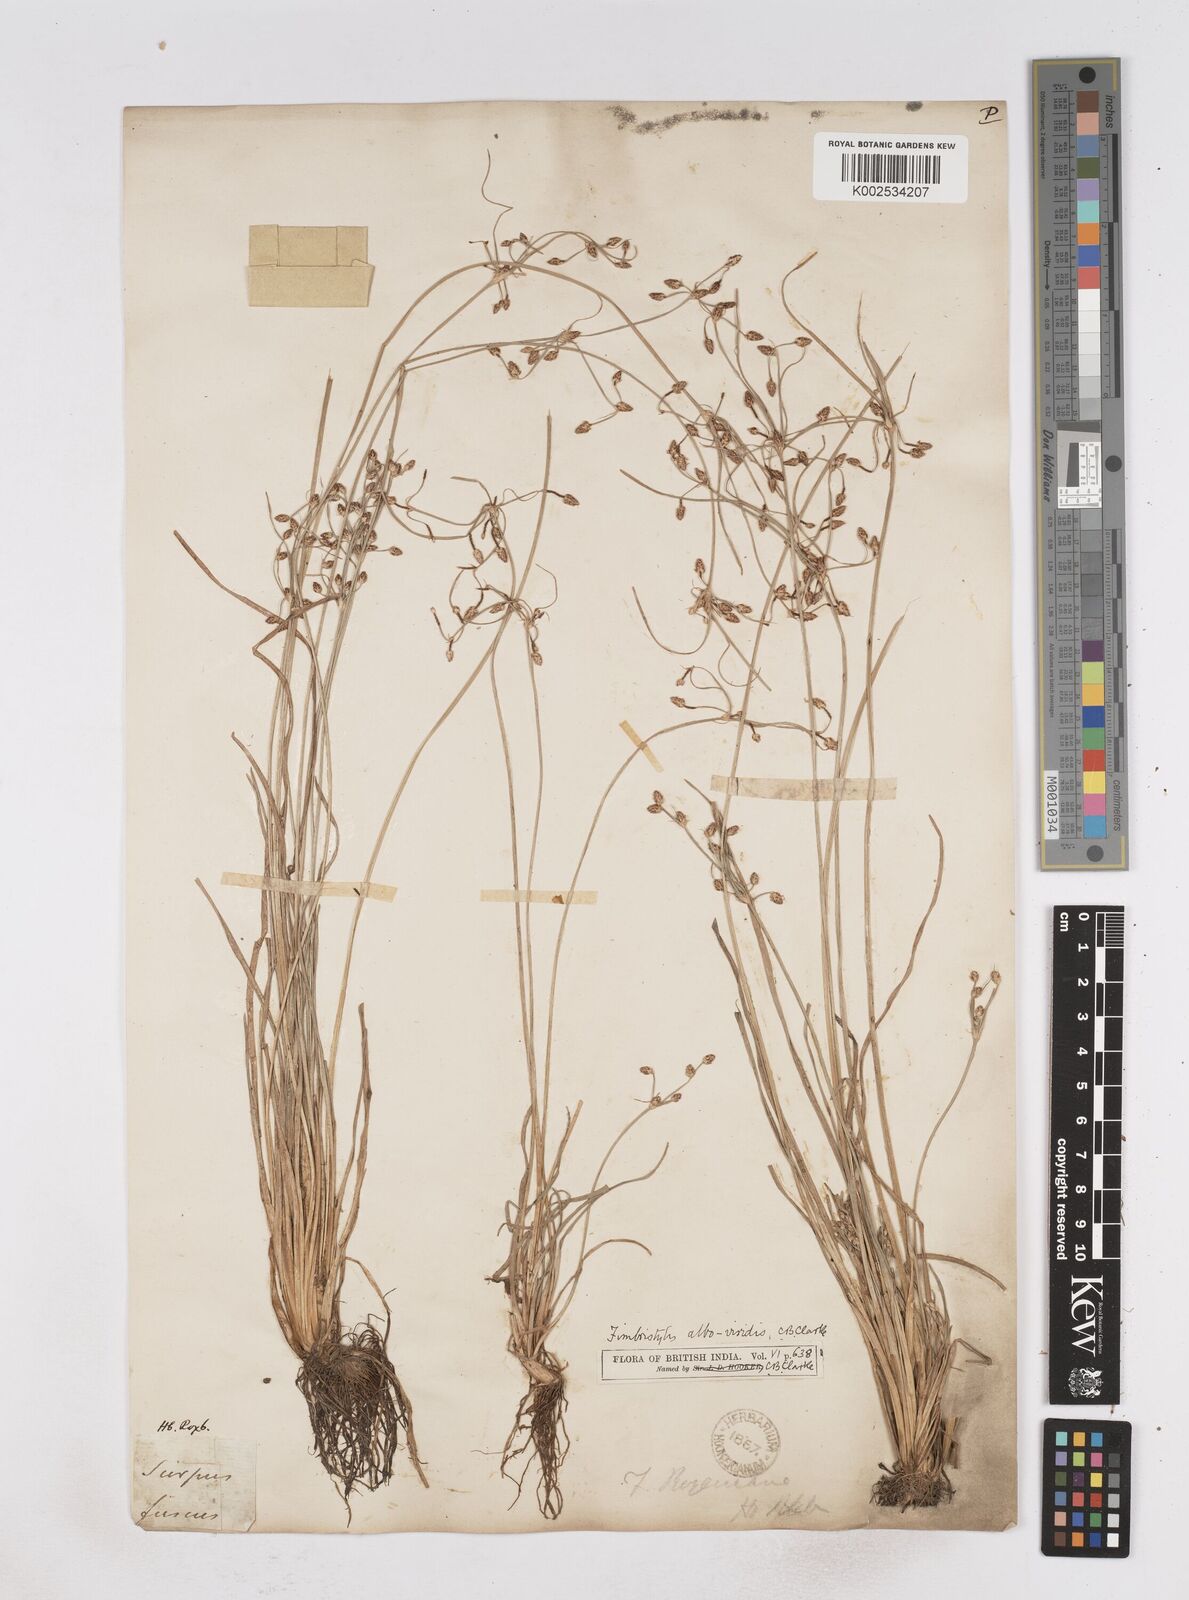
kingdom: Plantae
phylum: Tracheophyta
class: Liliopsida
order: Poales
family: Cyperaceae
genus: Fimbristylis
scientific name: Fimbristylis alboviridis
